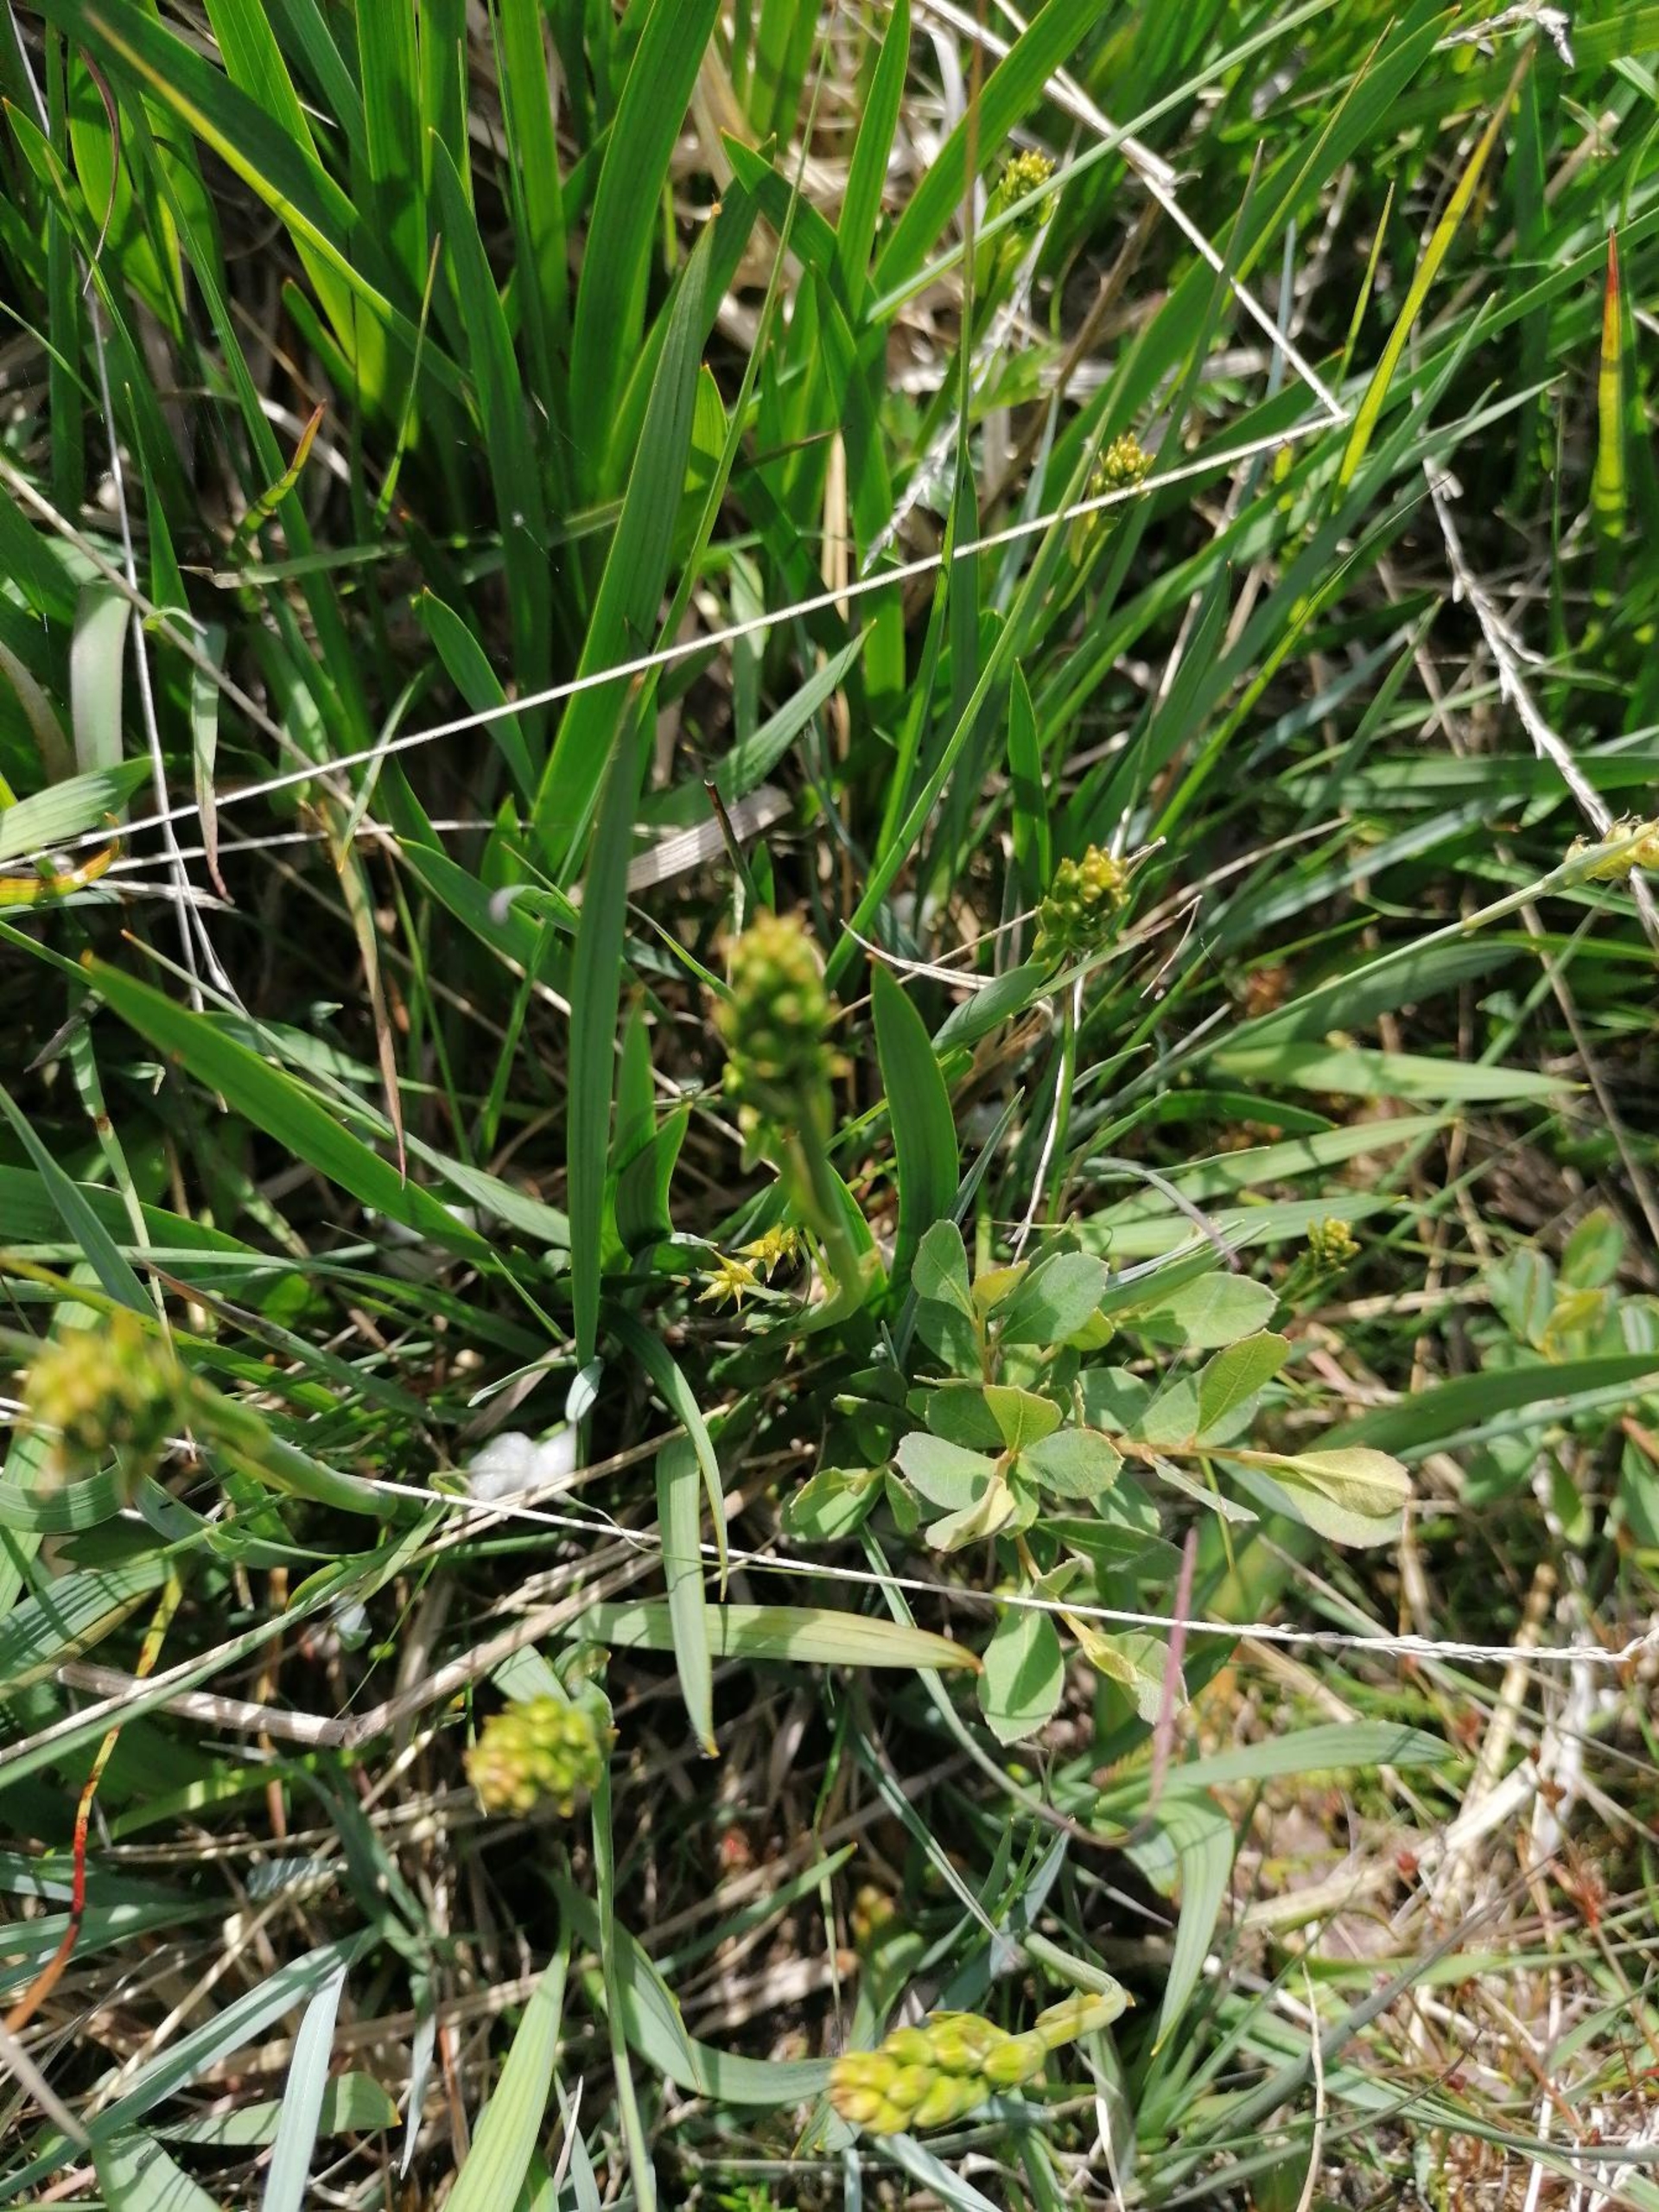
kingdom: Plantae
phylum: Tracheophyta
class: Liliopsida
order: Dioscoreales
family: Nartheciaceae
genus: Narthecium
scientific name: Narthecium ossifragum
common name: Benbræk
